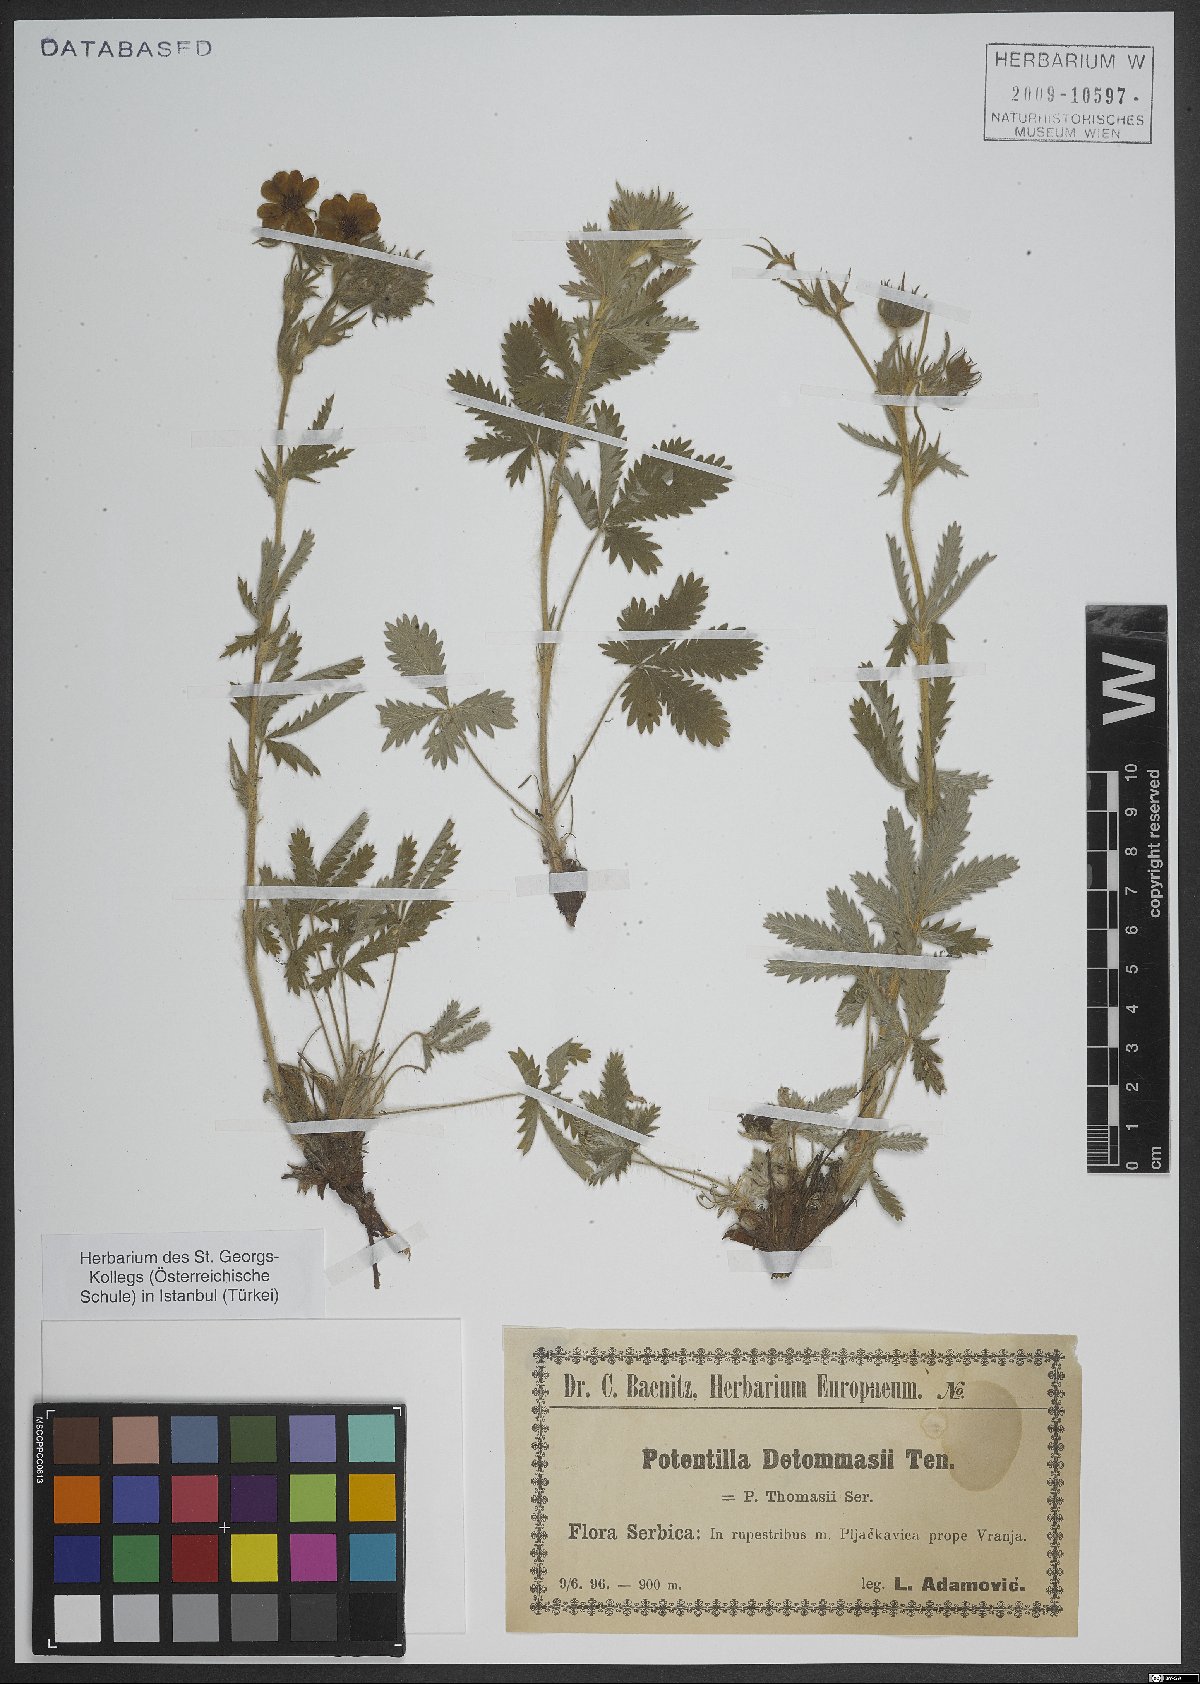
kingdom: Plantae
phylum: Tracheophyta
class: Magnoliopsida
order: Rosales
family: Rosaceae
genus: Potentilla
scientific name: Potentilla detommasii
